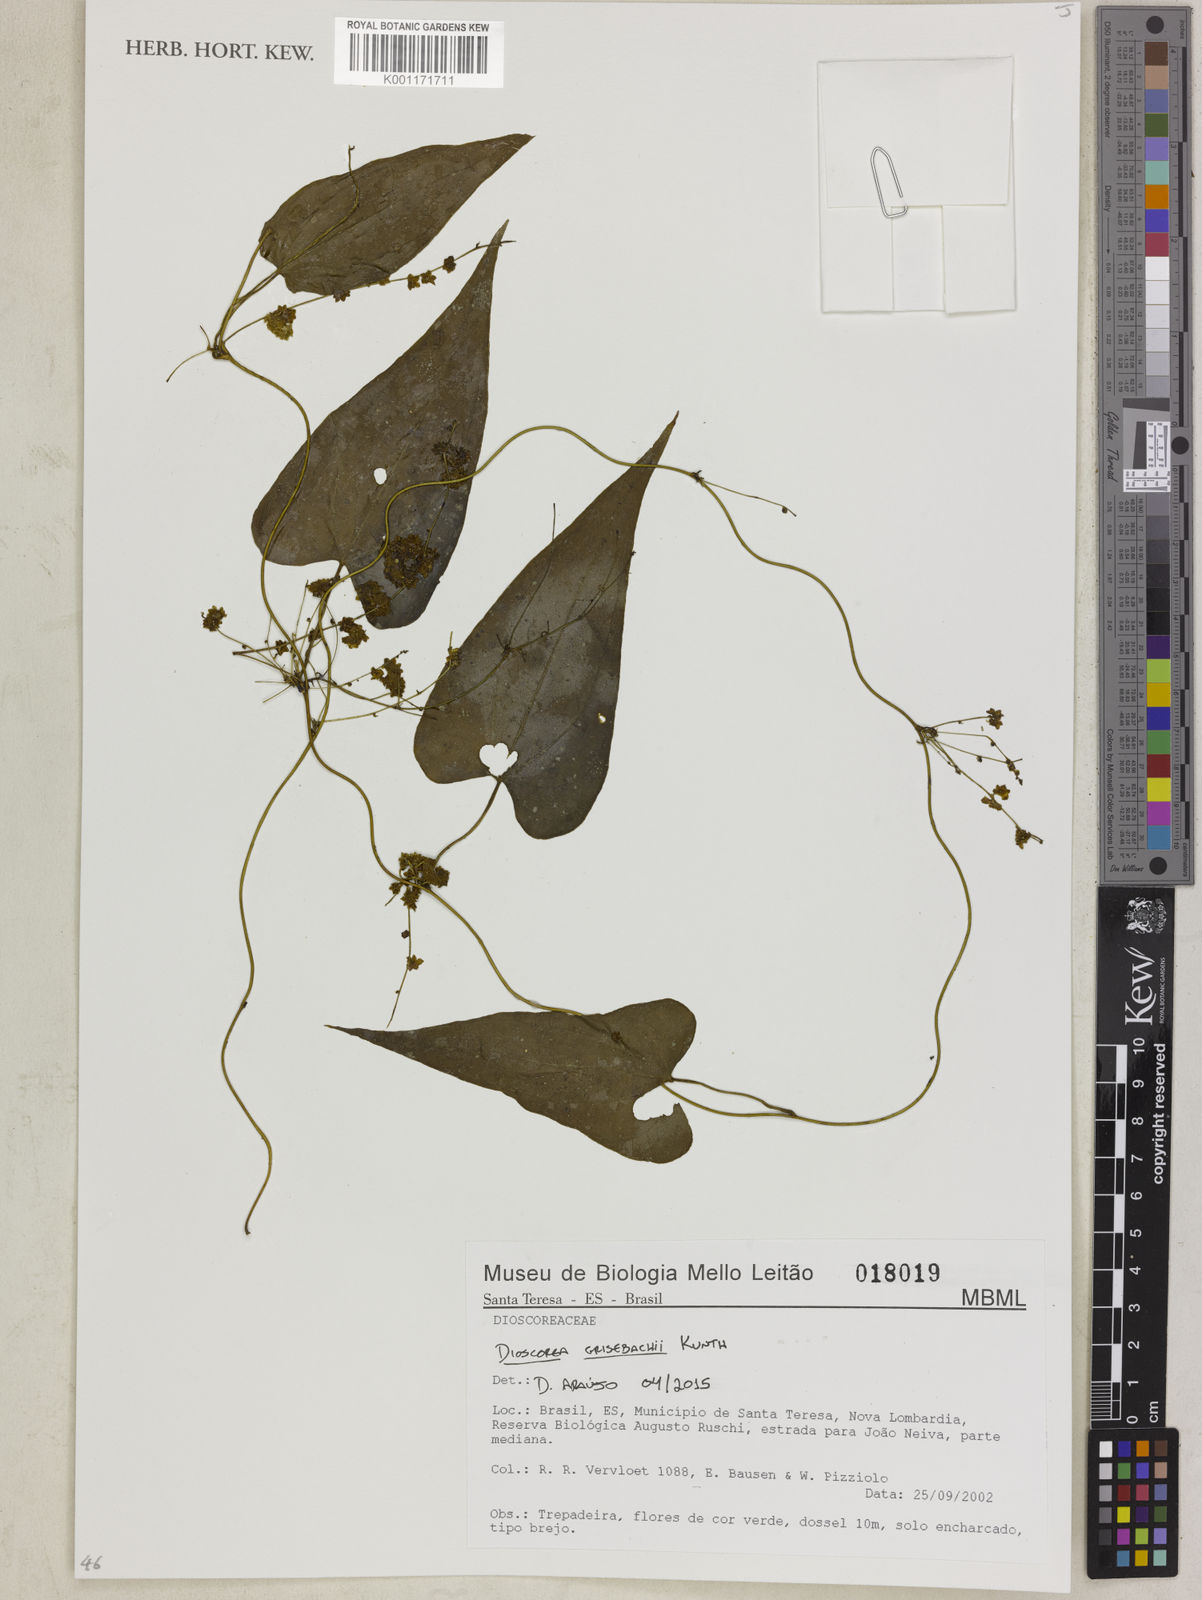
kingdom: Plantae
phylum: Tracheophyta
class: Liliopsida
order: Dioscoreales
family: Dioscoreaceae
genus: Dioscorea
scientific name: Dioscorea grisebachii
